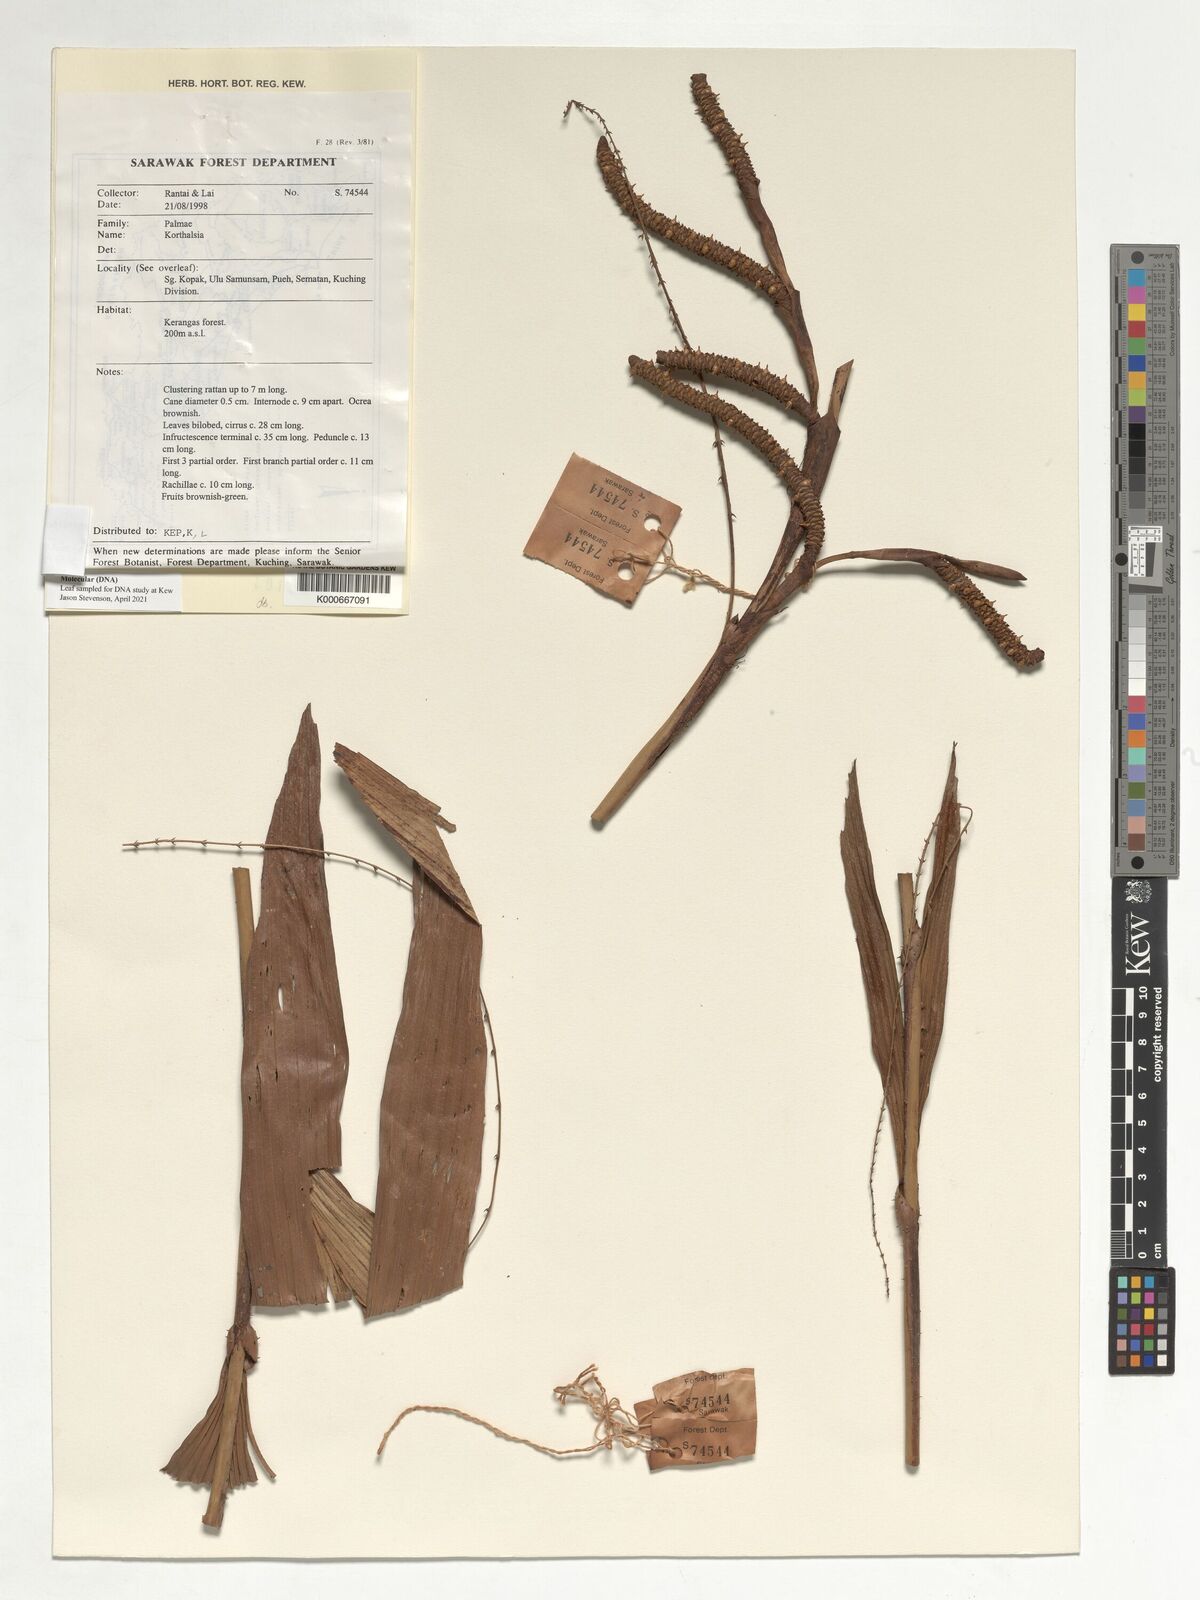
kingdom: Plantae
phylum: Tracheophyta
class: Liliopsida
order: Arecales
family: Arecaceae
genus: Korthalsia
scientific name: Korthalsia furcata
